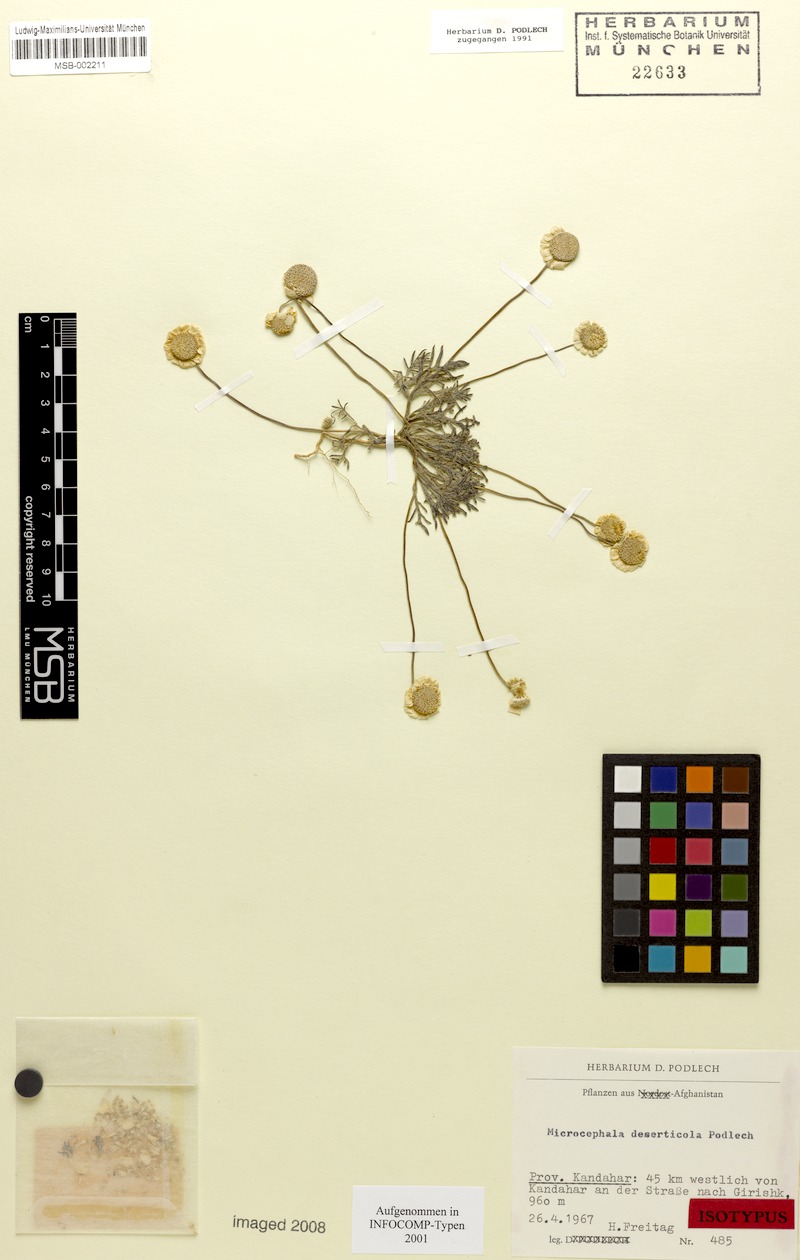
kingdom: Plantae
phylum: Tracheophyta
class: Magnoliopsida
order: Asterales
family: Asteraceae
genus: Microcephala
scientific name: Microcephala deserticola
